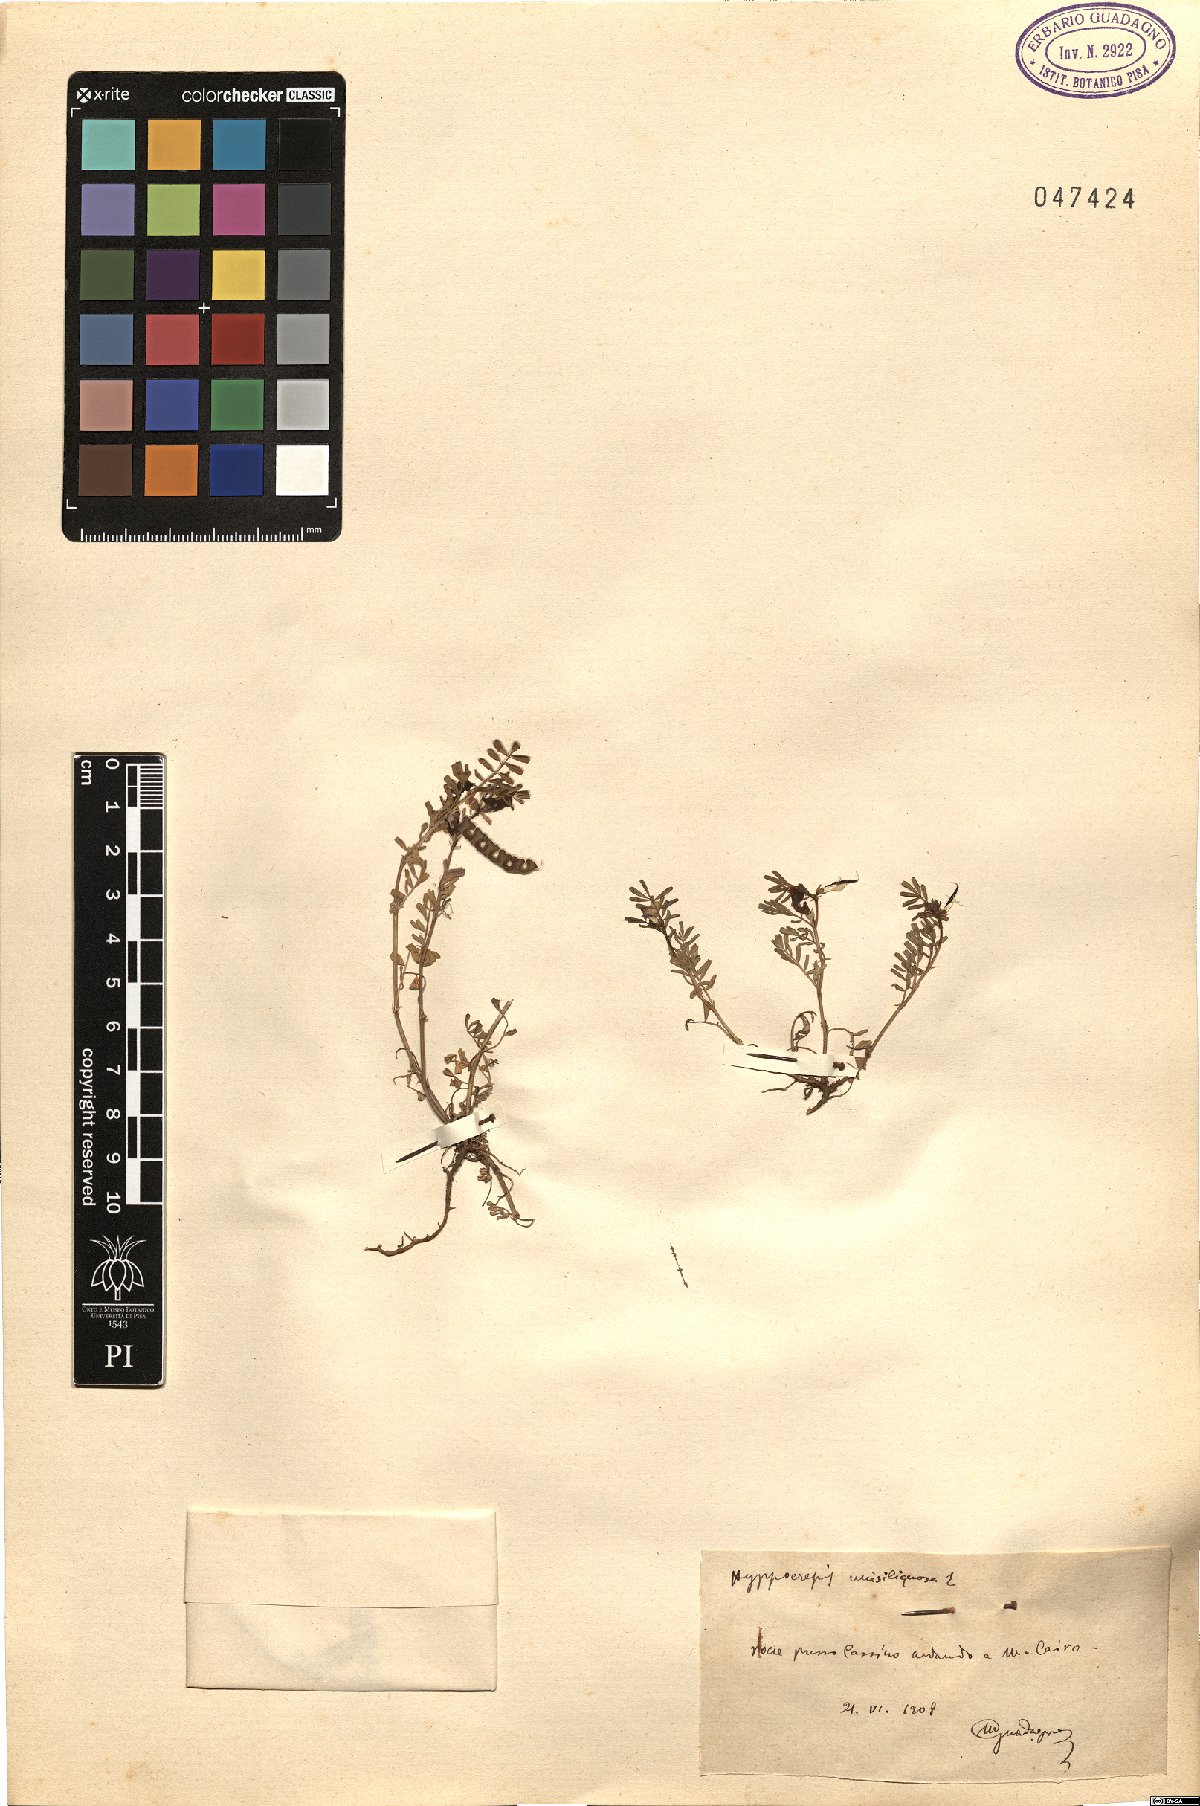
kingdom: Plantae
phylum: Tracheophyta
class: Magnoliopsida
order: Fabales
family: Fabaceae
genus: Hippocrepis
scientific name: Hippocrepis unisiliquosa
